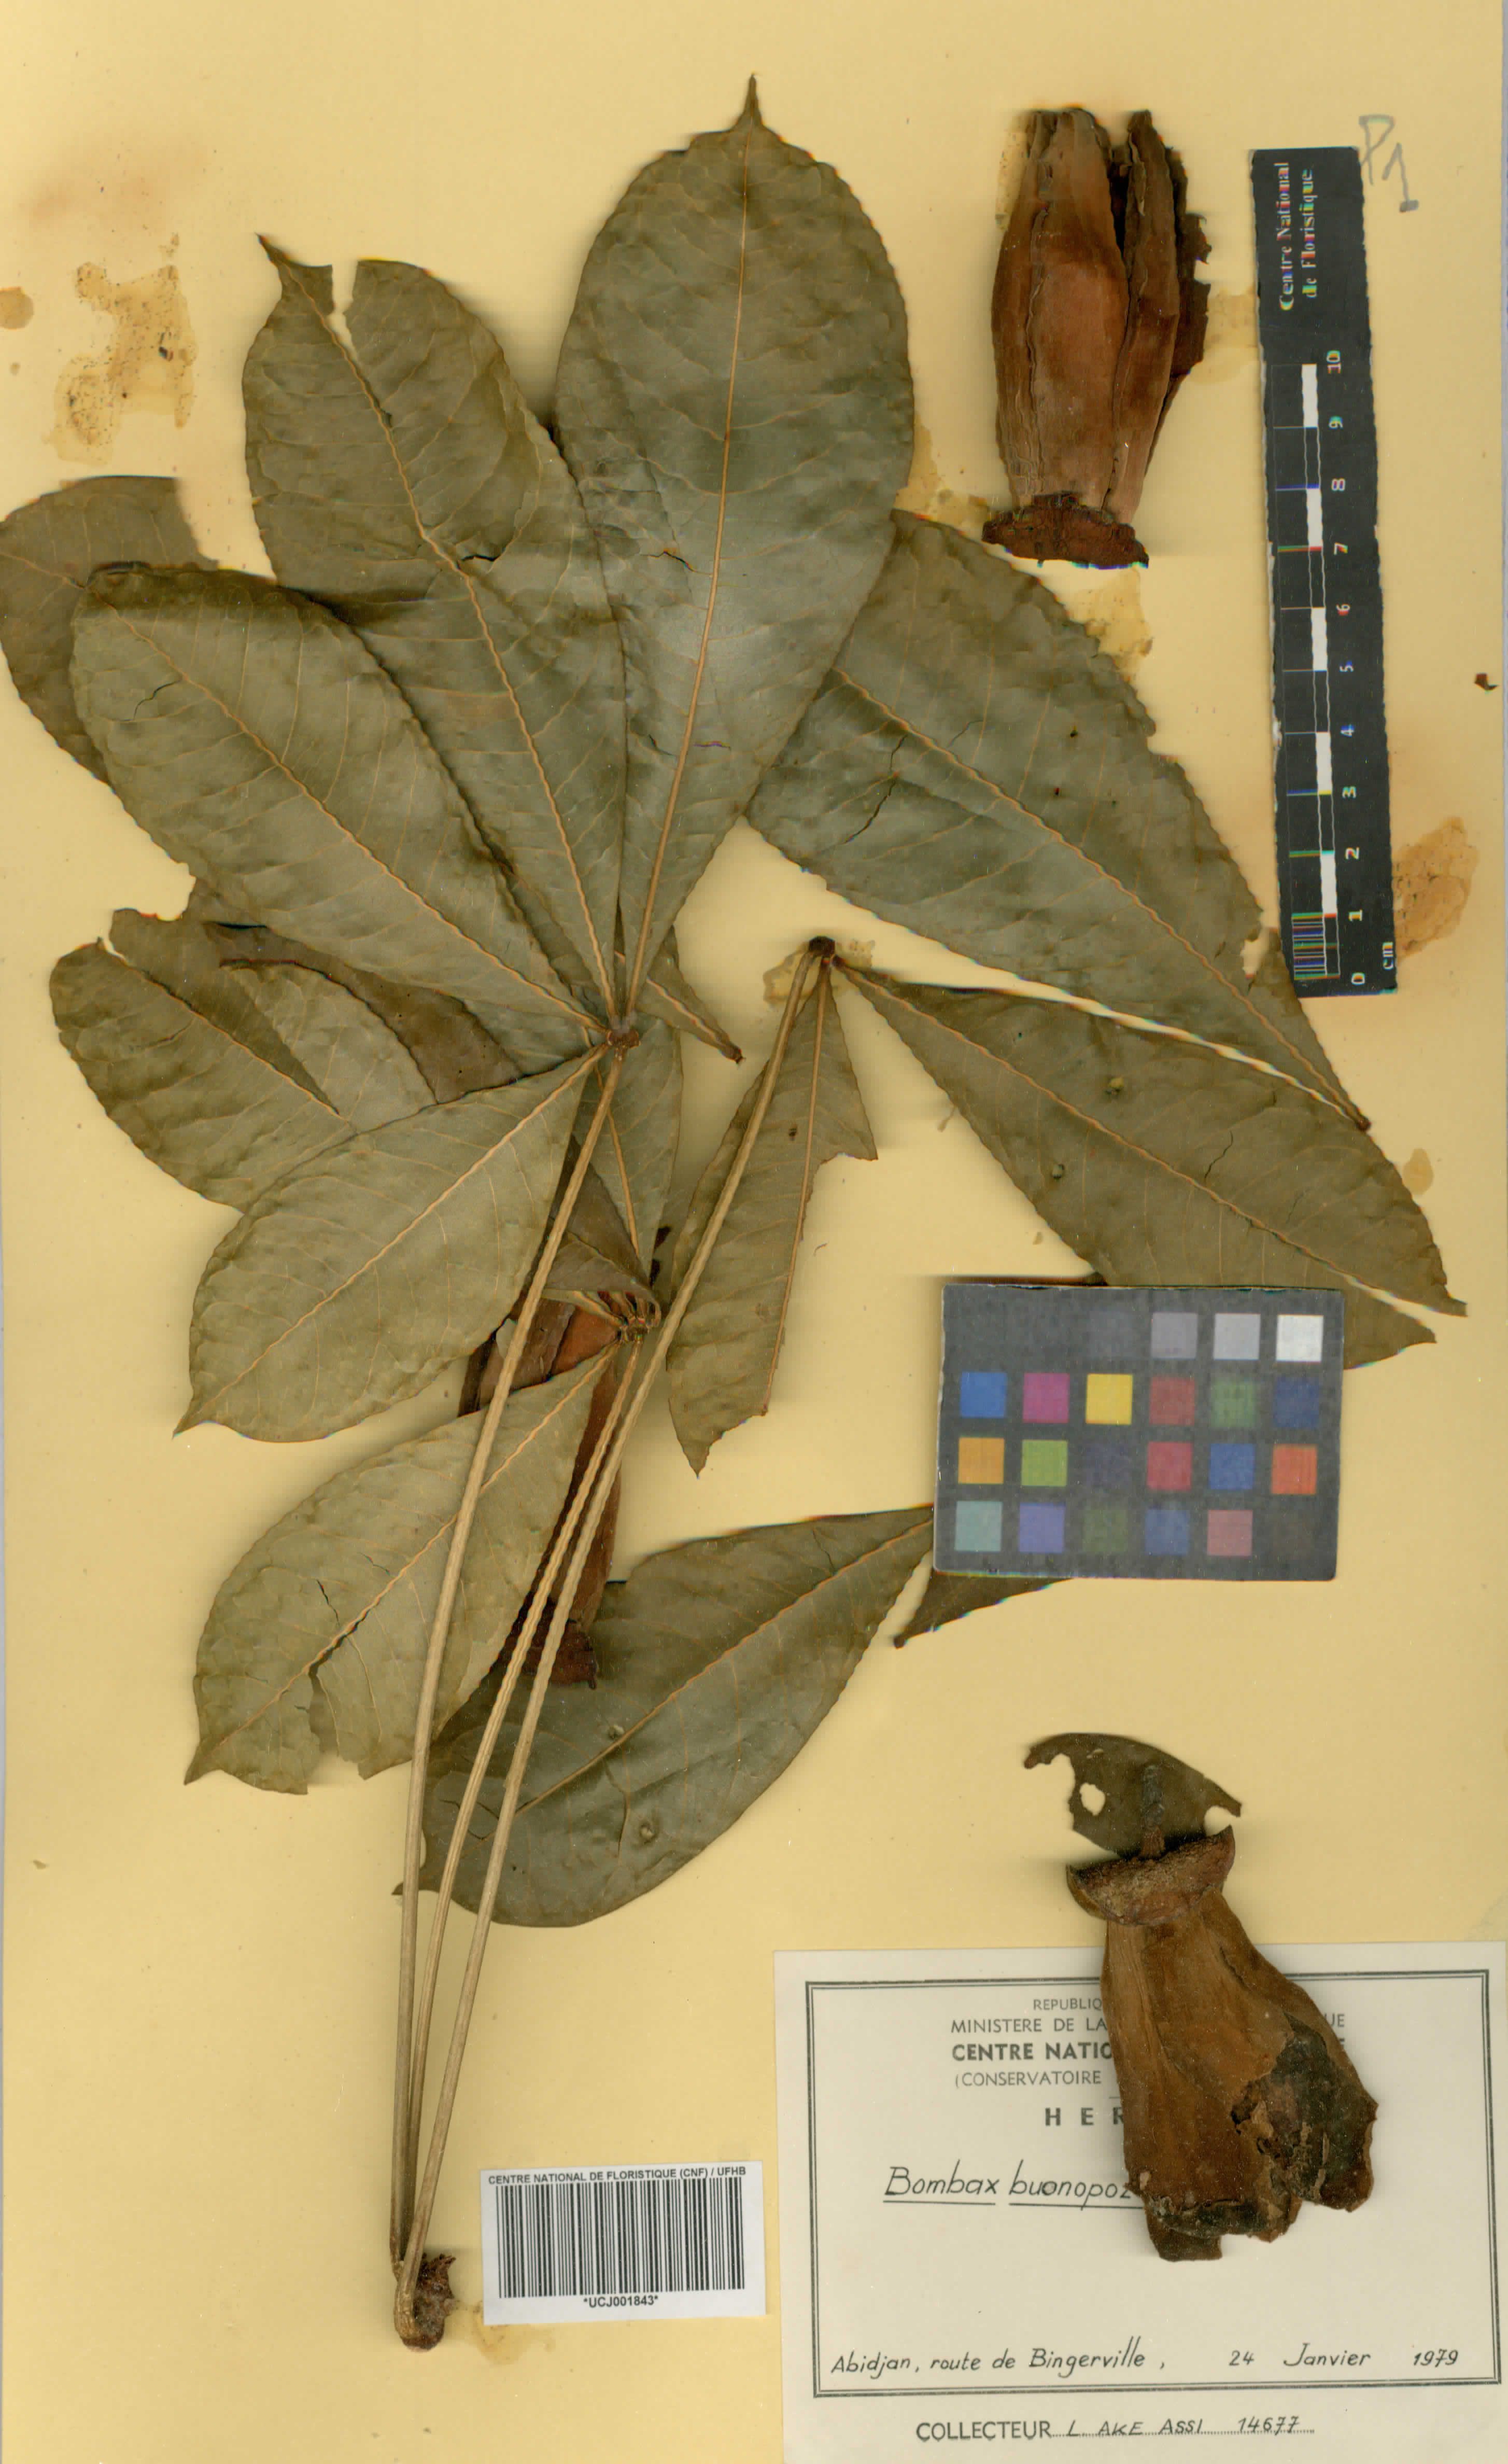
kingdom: Plantae
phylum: Tracheophyta
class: Magnoliopsida
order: Malvales
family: Malvaceae
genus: Bombax
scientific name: Bombax buonopozense
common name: Gold coast bombax
